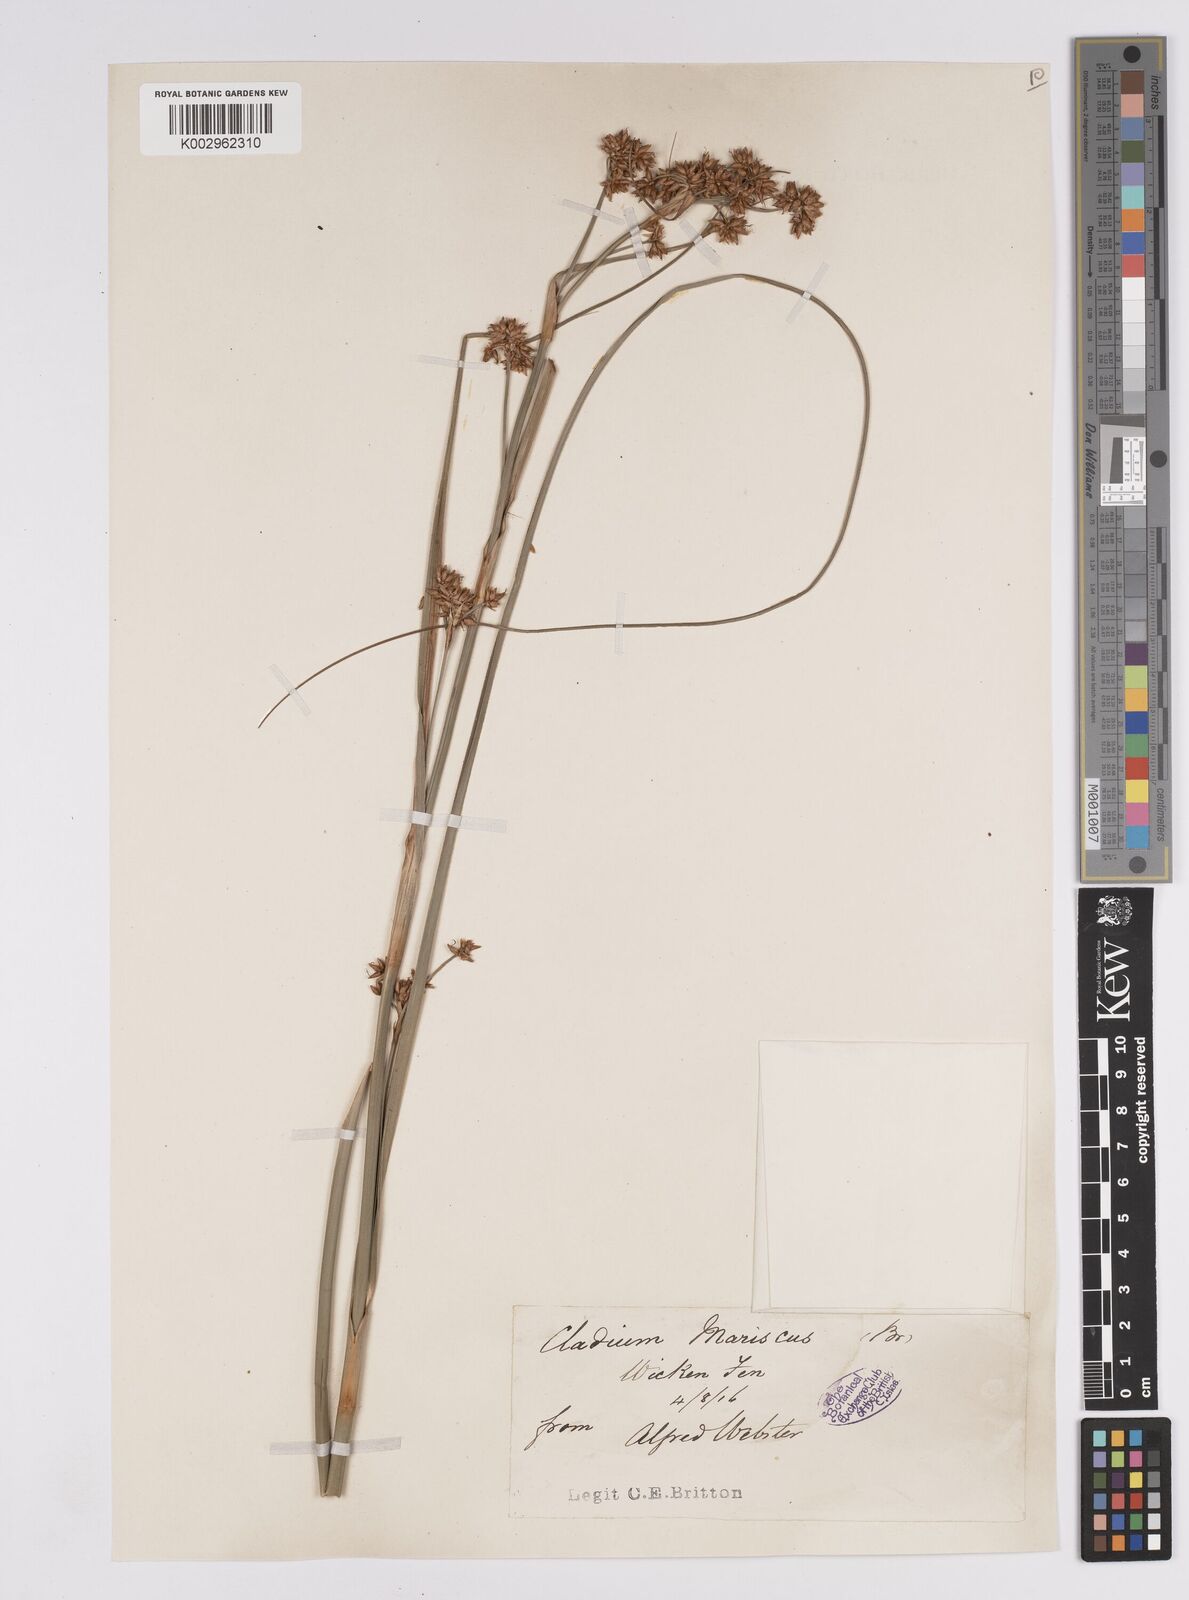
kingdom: Plantae
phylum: Tracheophyta
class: Liliopsida
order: Poales
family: Cyperaceae
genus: Cladium
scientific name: Cladium mariscus
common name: Great fen-sedge
